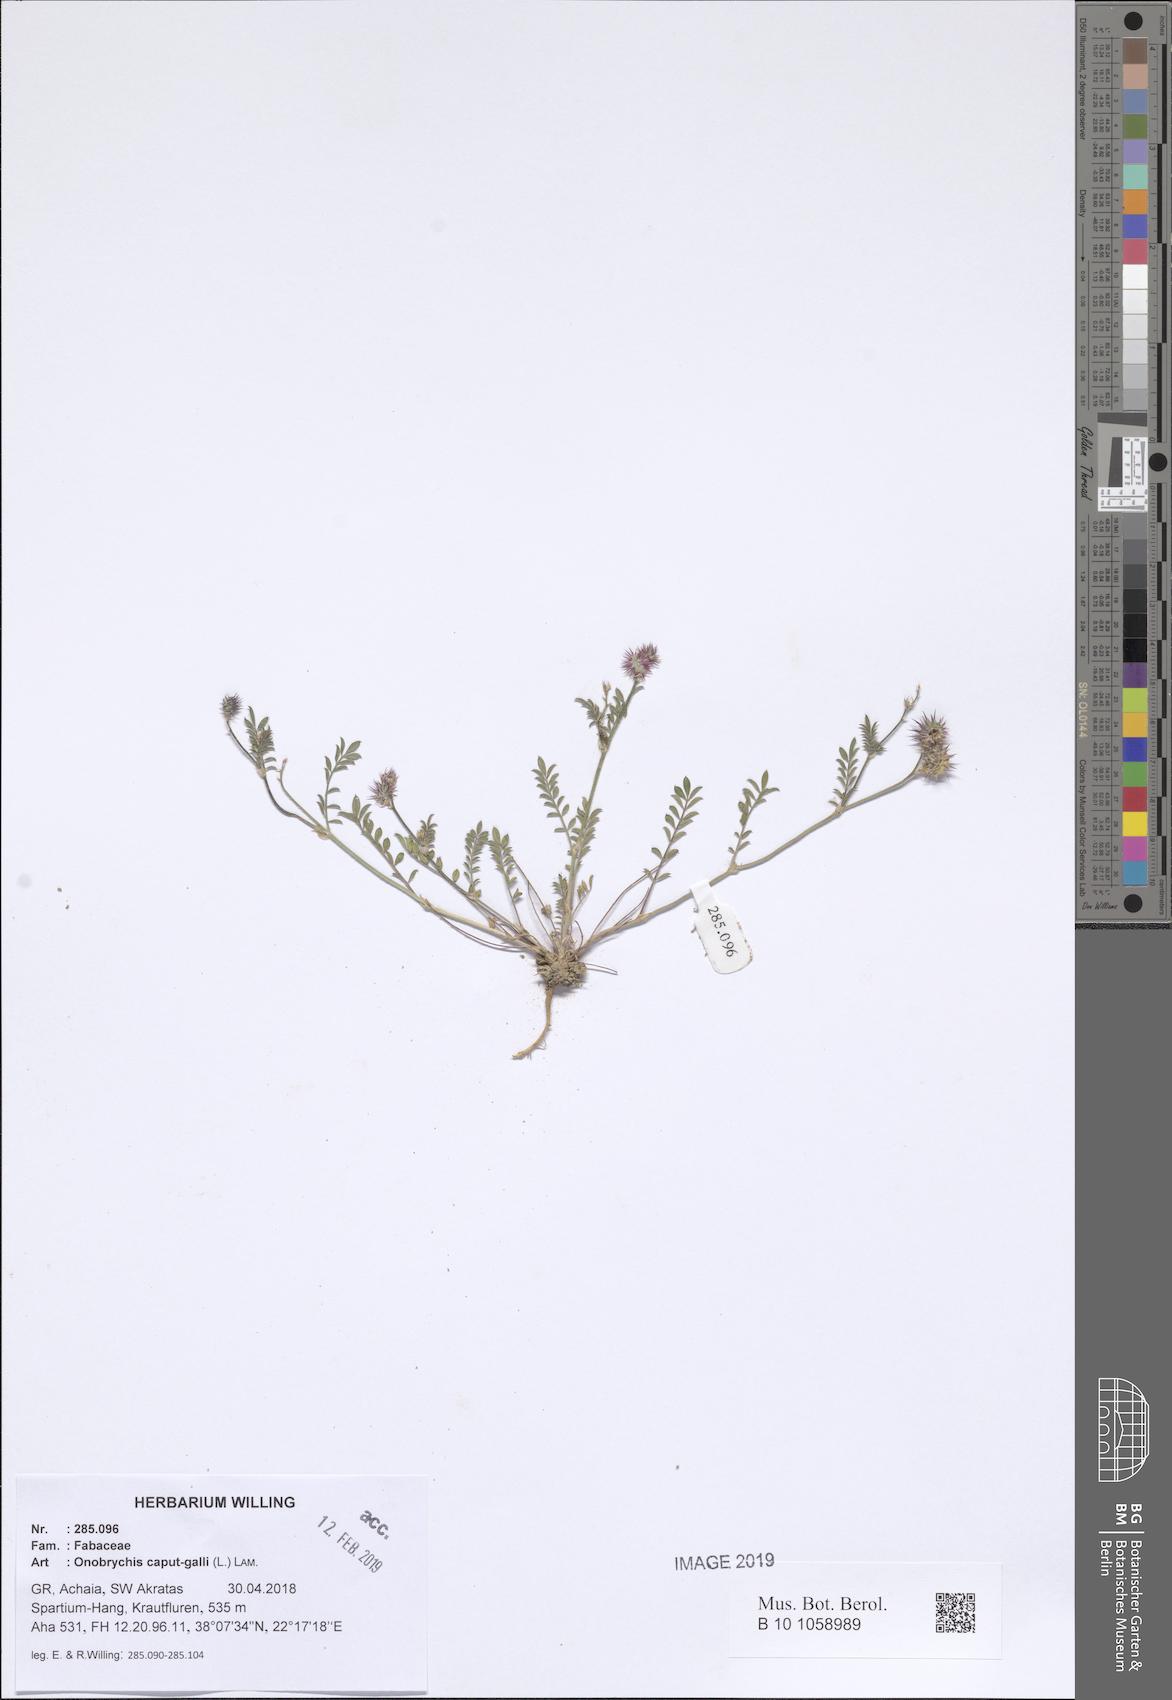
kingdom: Plantae
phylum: Tracheophyta
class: Magnoliopsida
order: Fabales
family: Fabaceae
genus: Onobrychis
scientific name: Onobrychis caput-galli
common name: Cockscomb sainfoin
